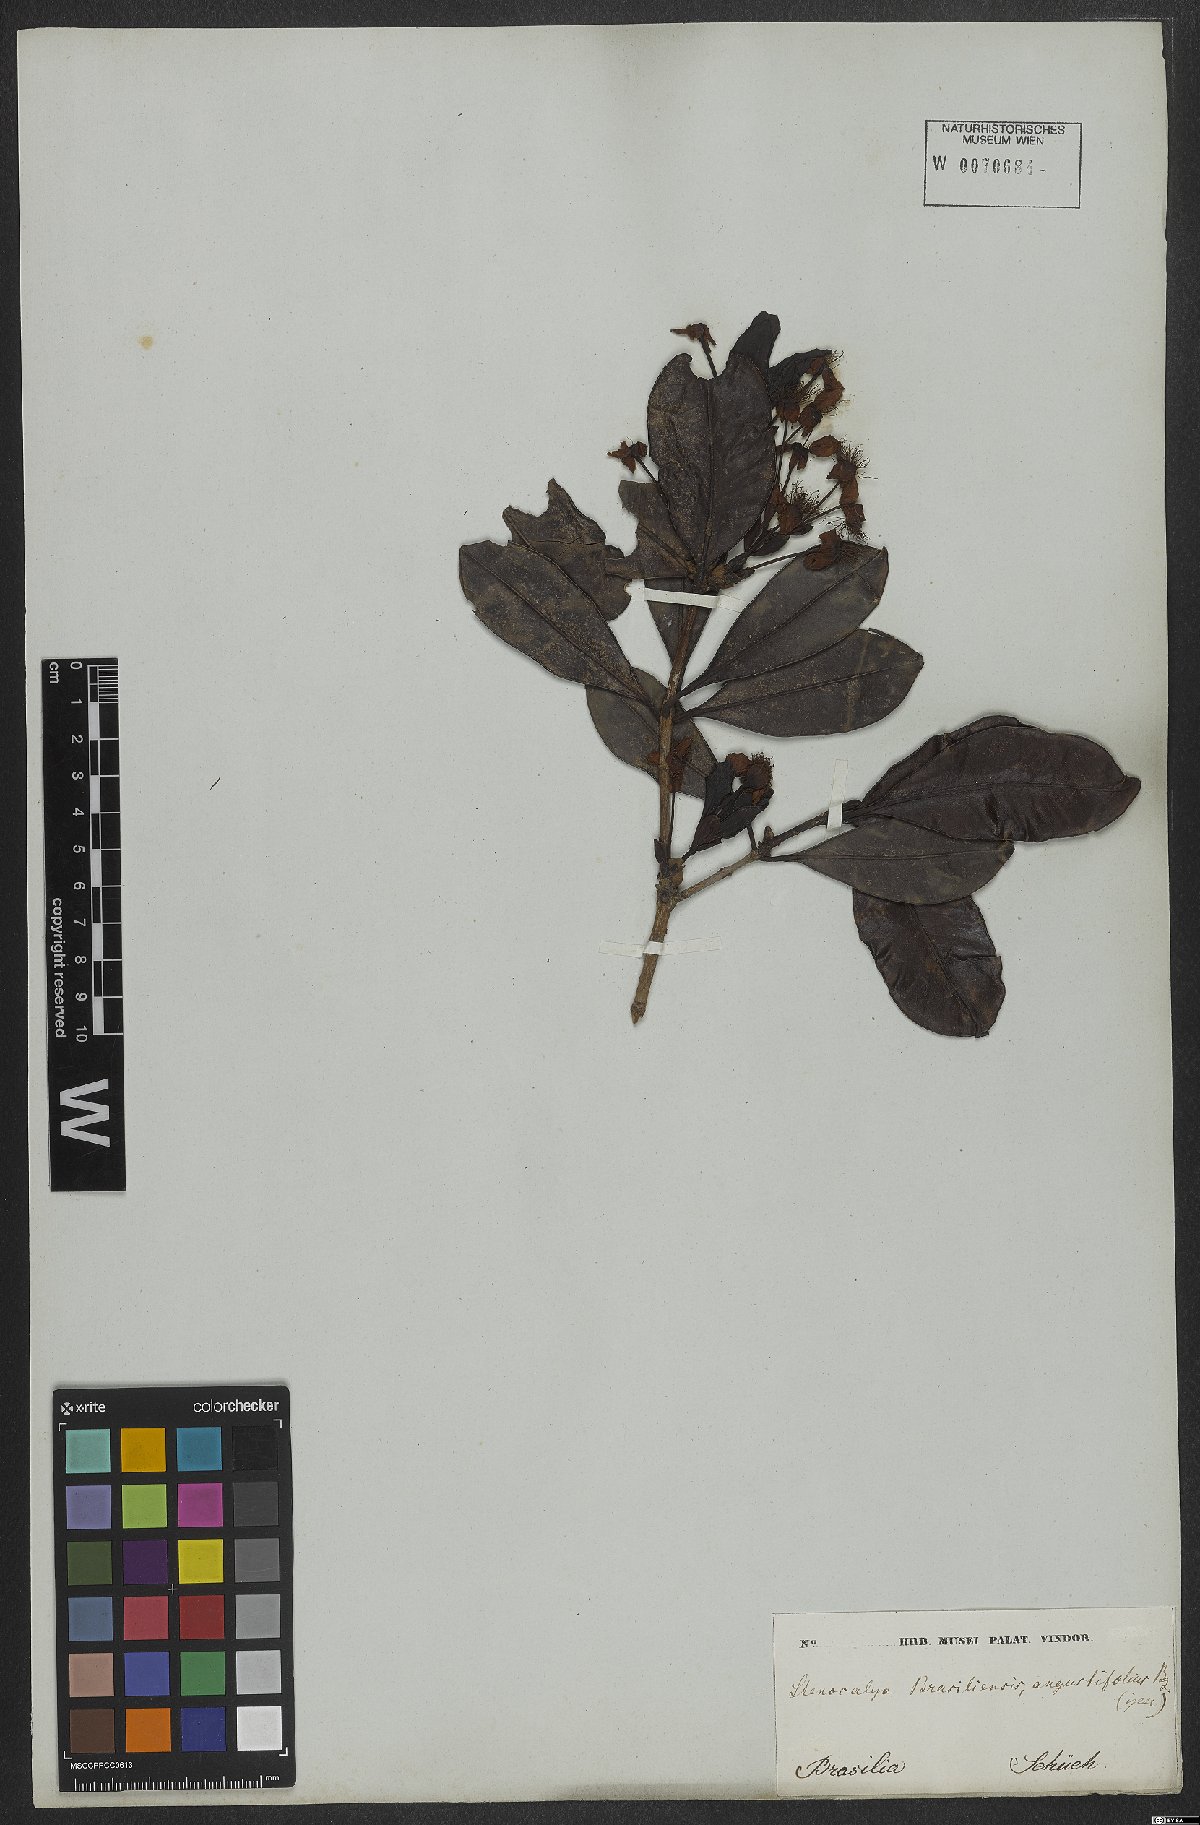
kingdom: Plantae
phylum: Tracheophyta
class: Magnoliopsida
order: Myrtales
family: Myrtaceae
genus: Eugenia
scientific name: Eugenia brasiliensis
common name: Grumichama
